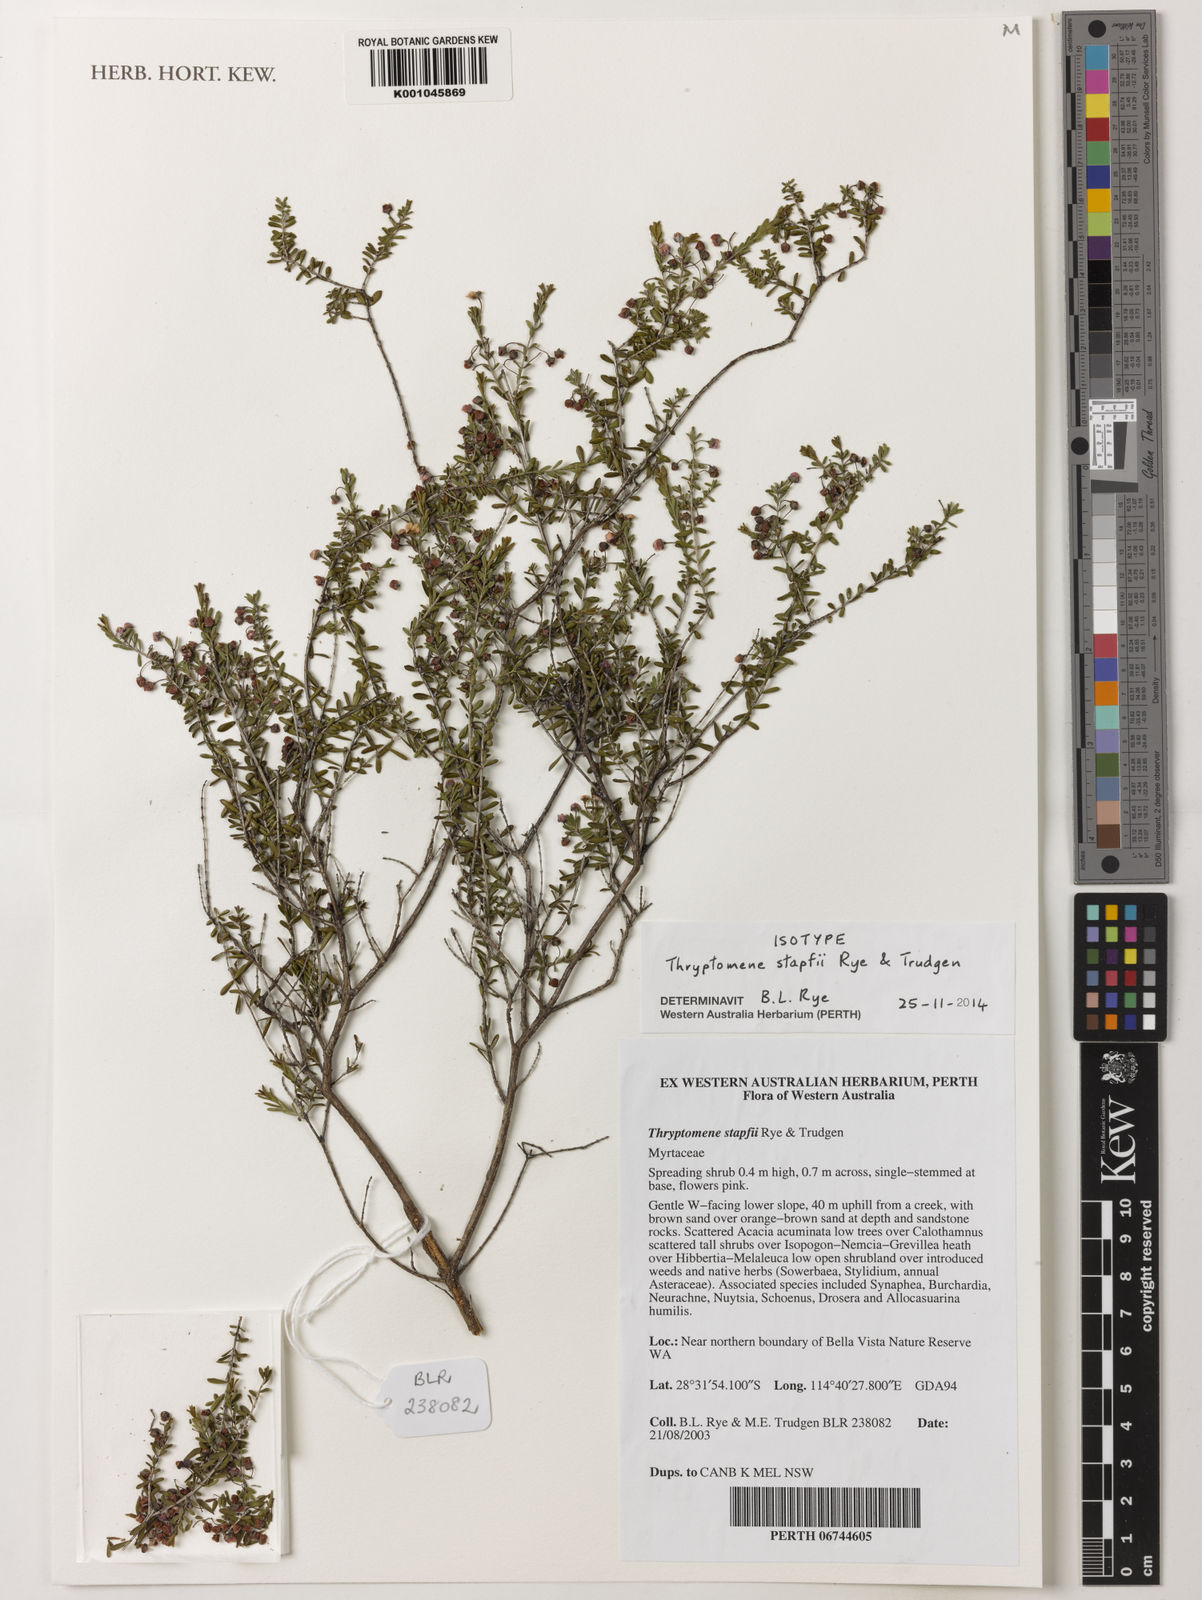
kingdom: Plantae
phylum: Tracheophyta
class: Magnoliopsida
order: Myrtales
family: Myrtaceae
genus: Thryptomene
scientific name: Thryptomene stapfii
